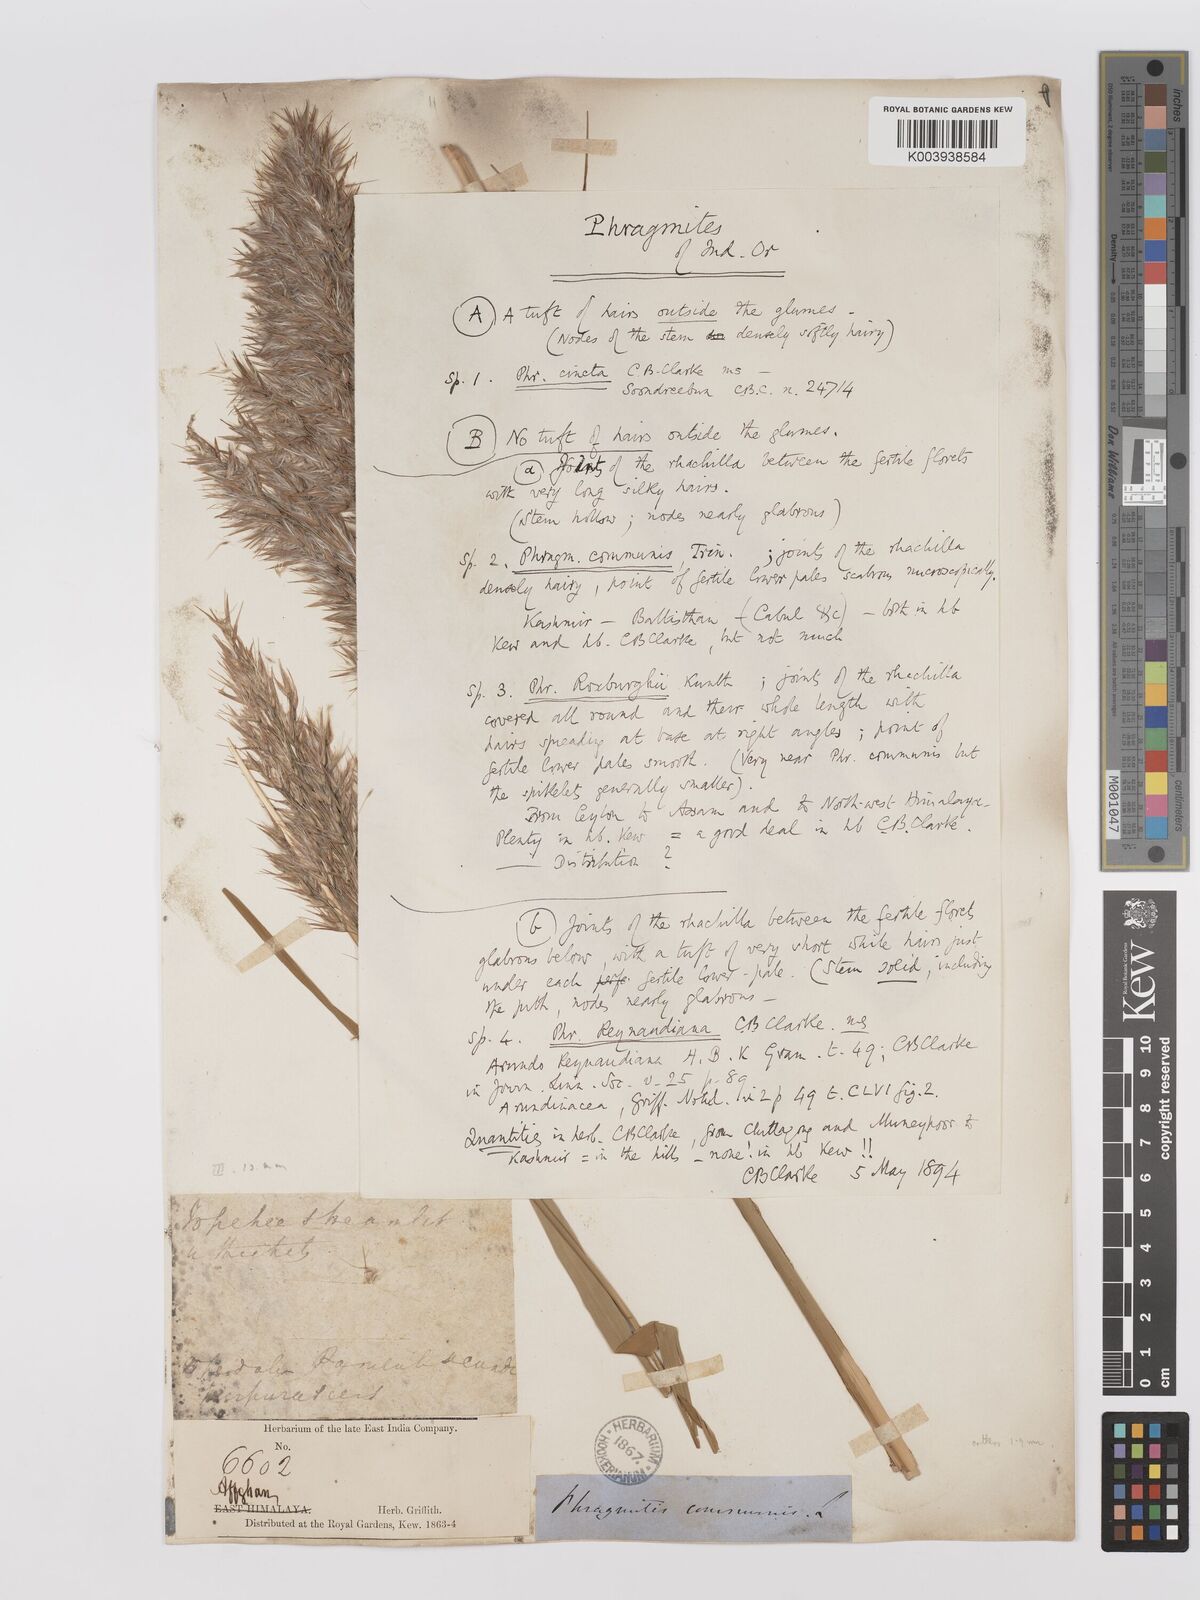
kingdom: Plantae
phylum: Tracheophyta
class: Liliopsida
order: Poales
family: Poaceae
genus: Phragmites
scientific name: Phragmites australis
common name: Common reed
